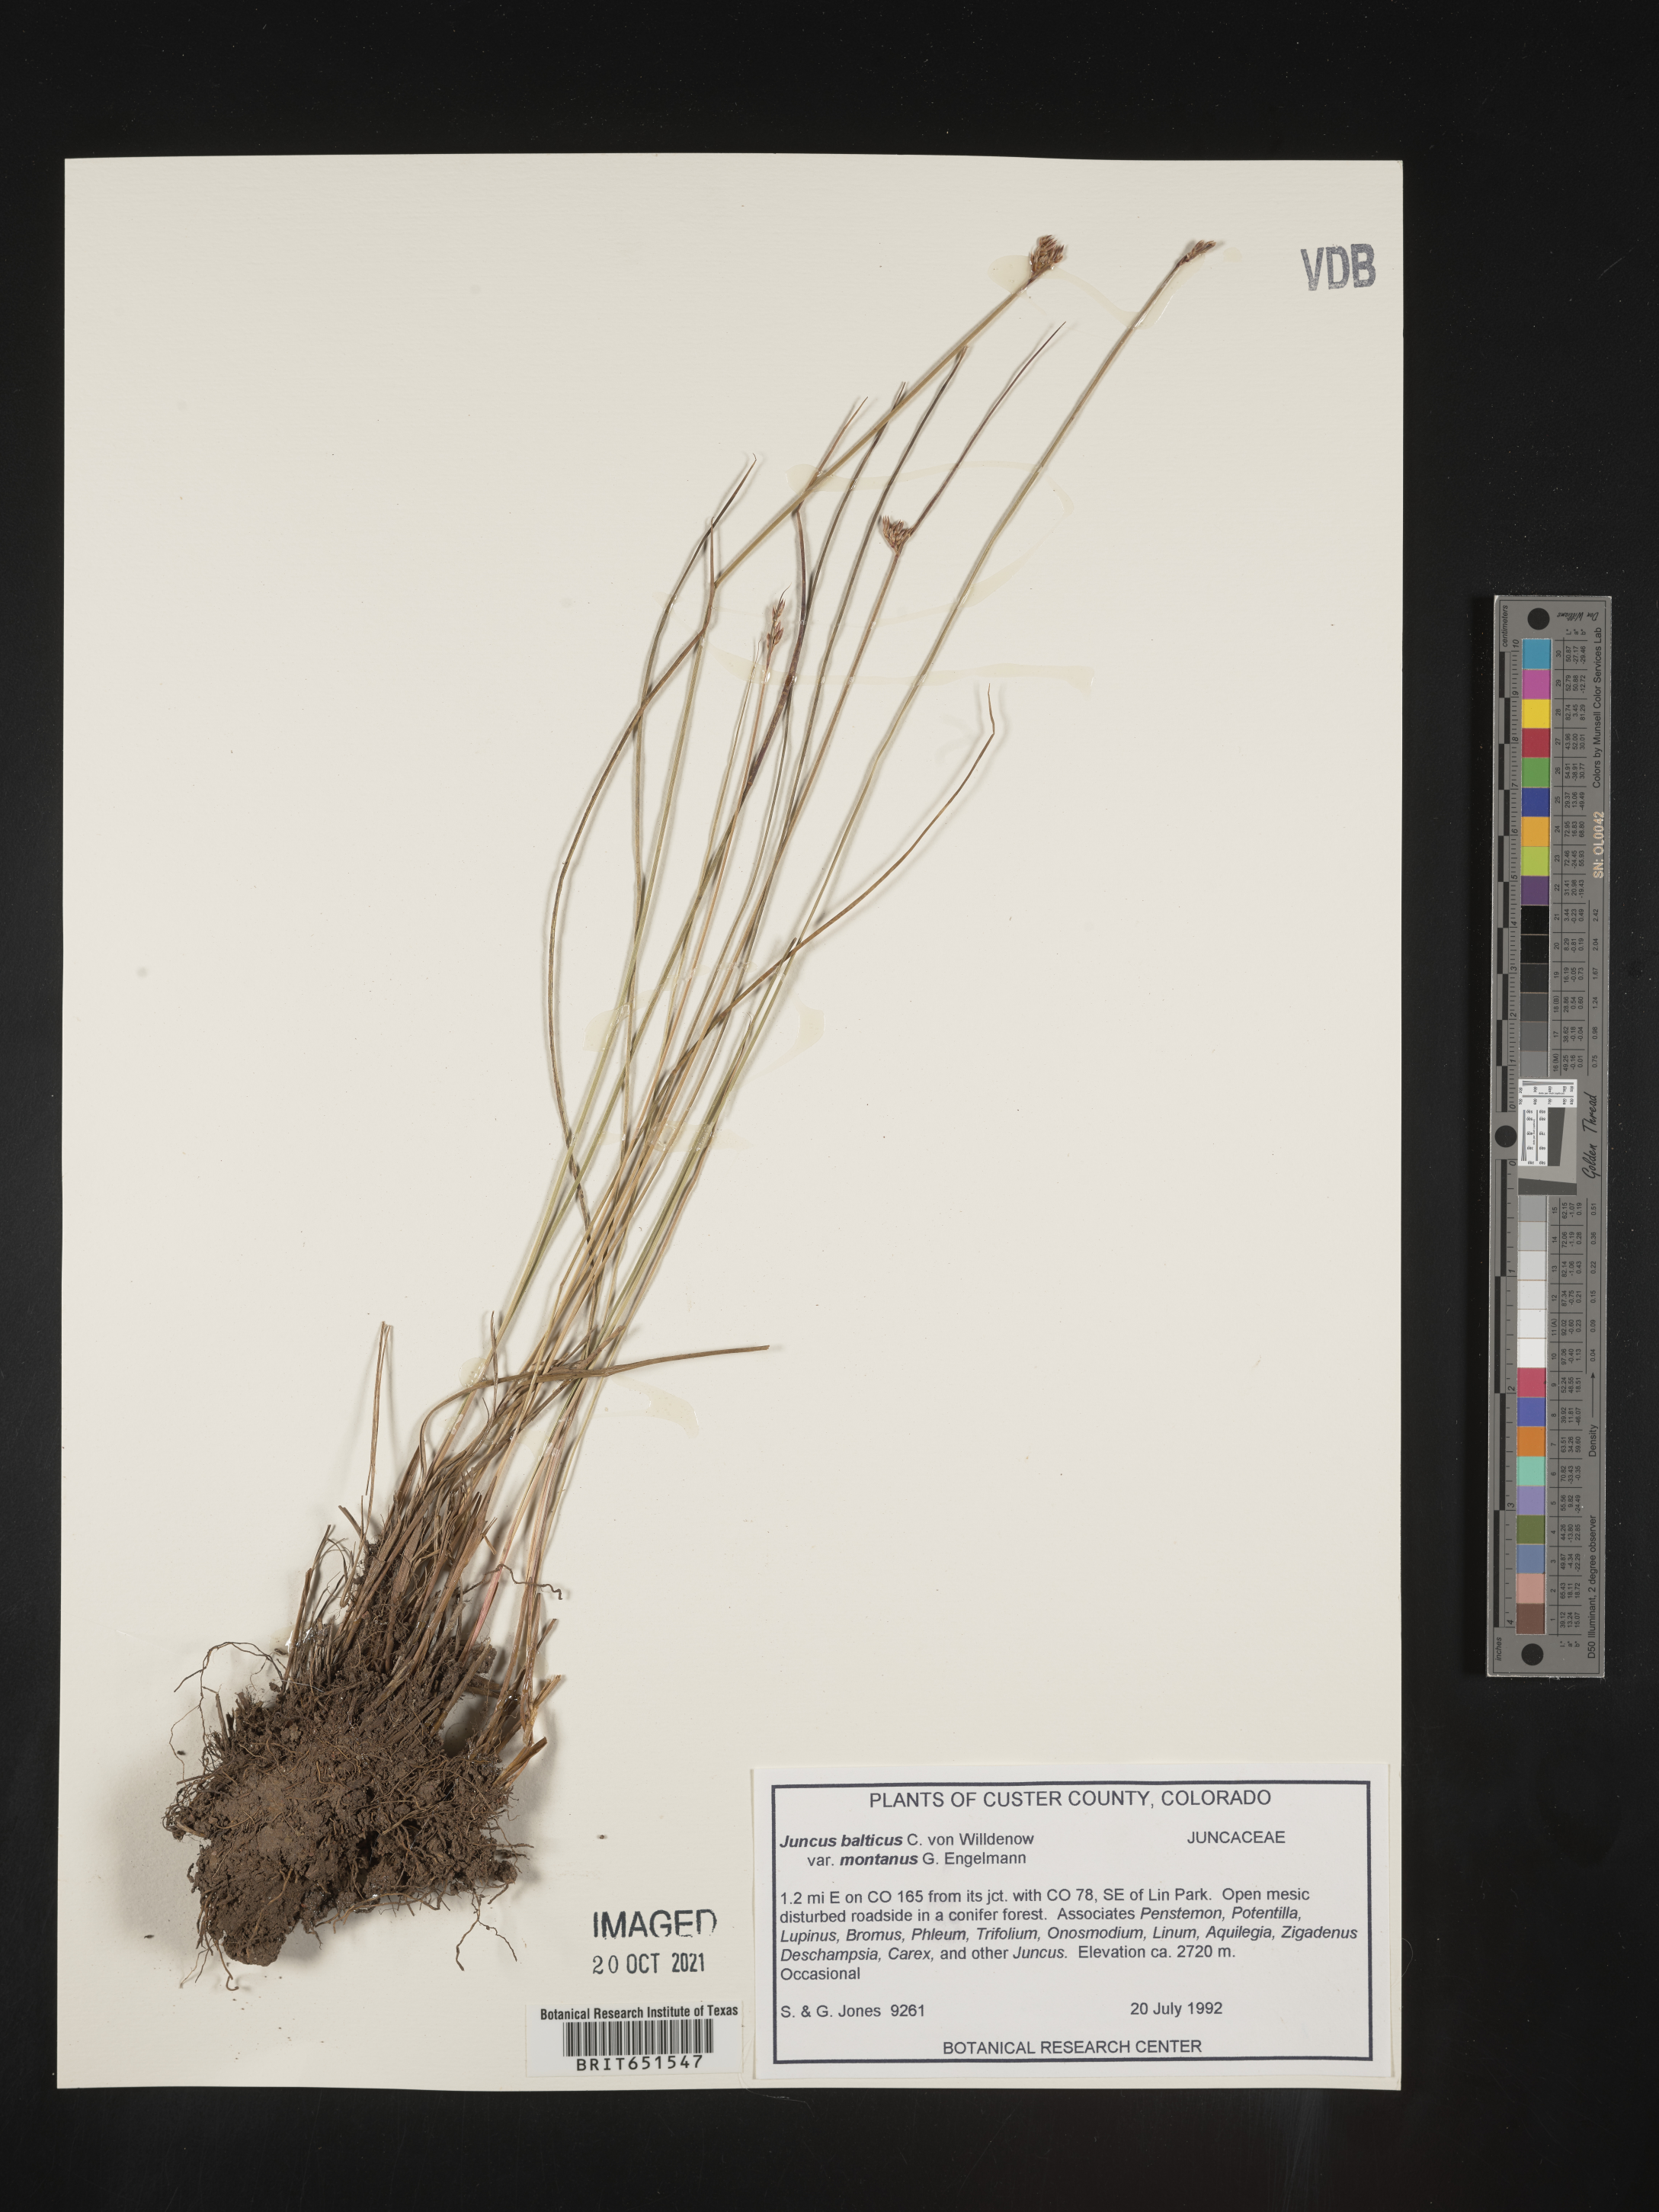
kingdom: Plantae
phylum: Tracheophyta
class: Liliopsida
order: Poales
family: Juncaceae
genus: Juncus
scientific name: Juncus
